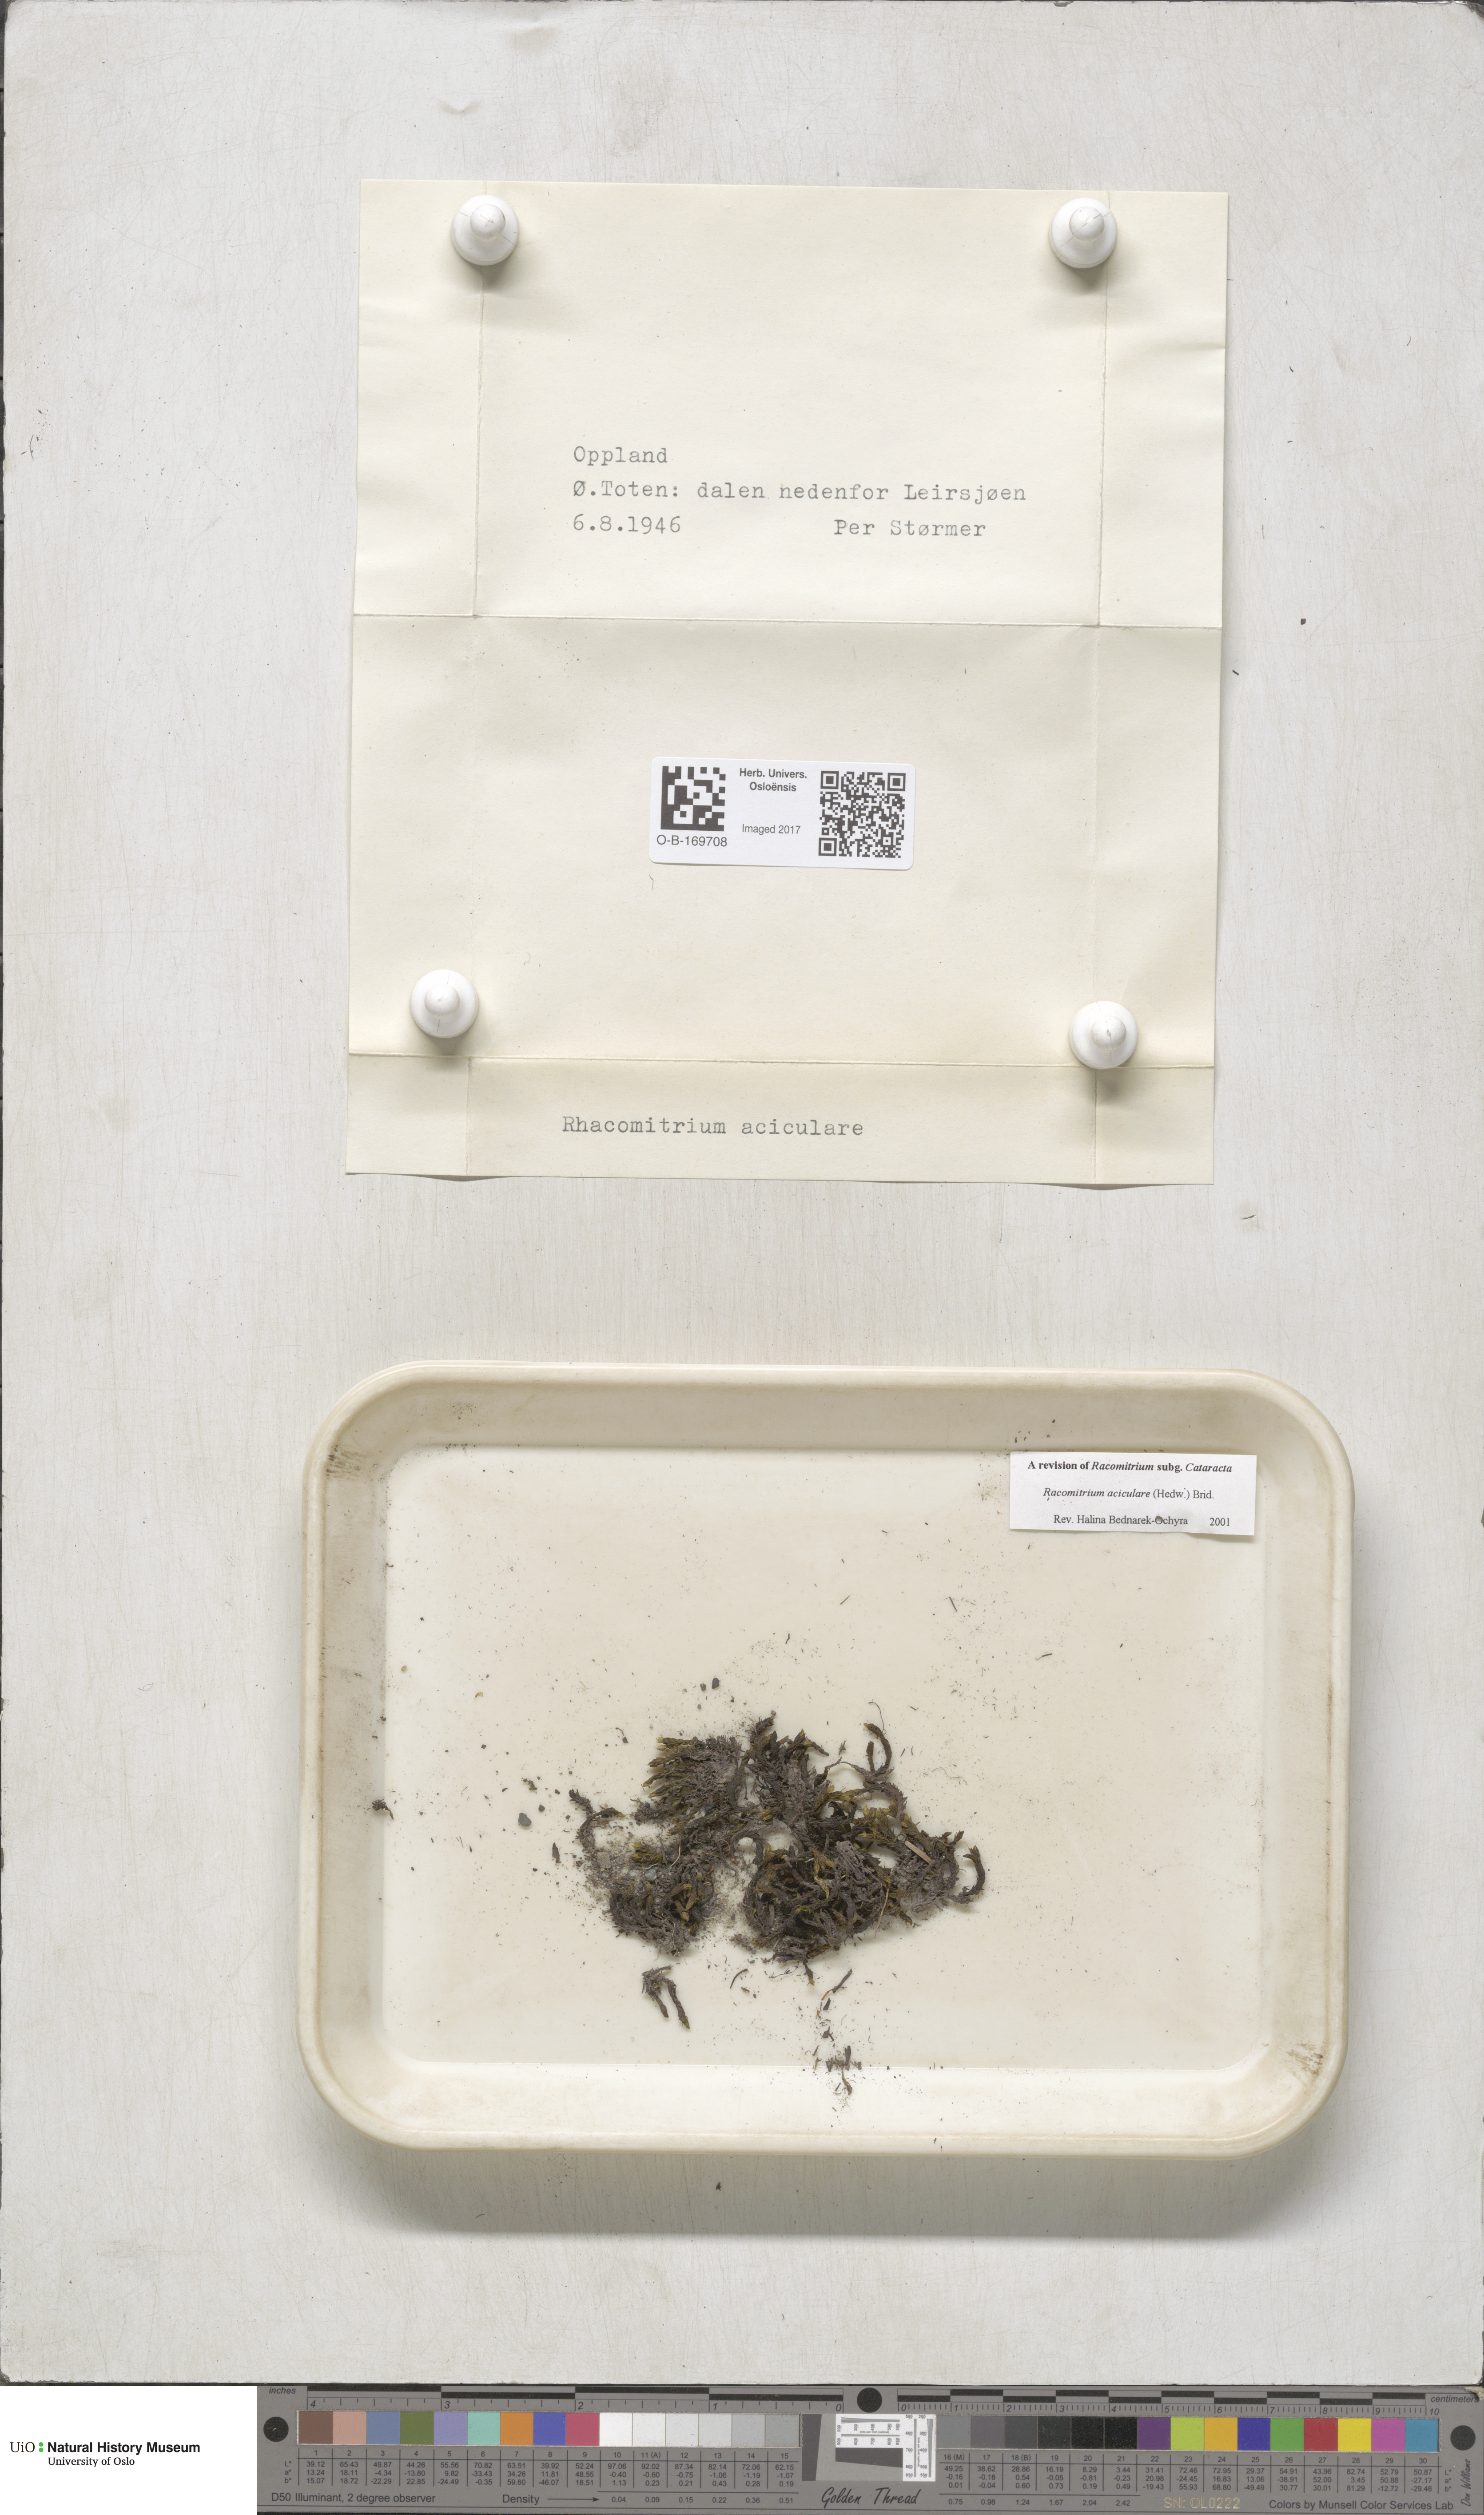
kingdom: Plantae
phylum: Bryophyta
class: Bryopsida
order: Grimmiales
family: Grimmiaceae
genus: Codriophorus
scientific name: Codriophorus acicularis
